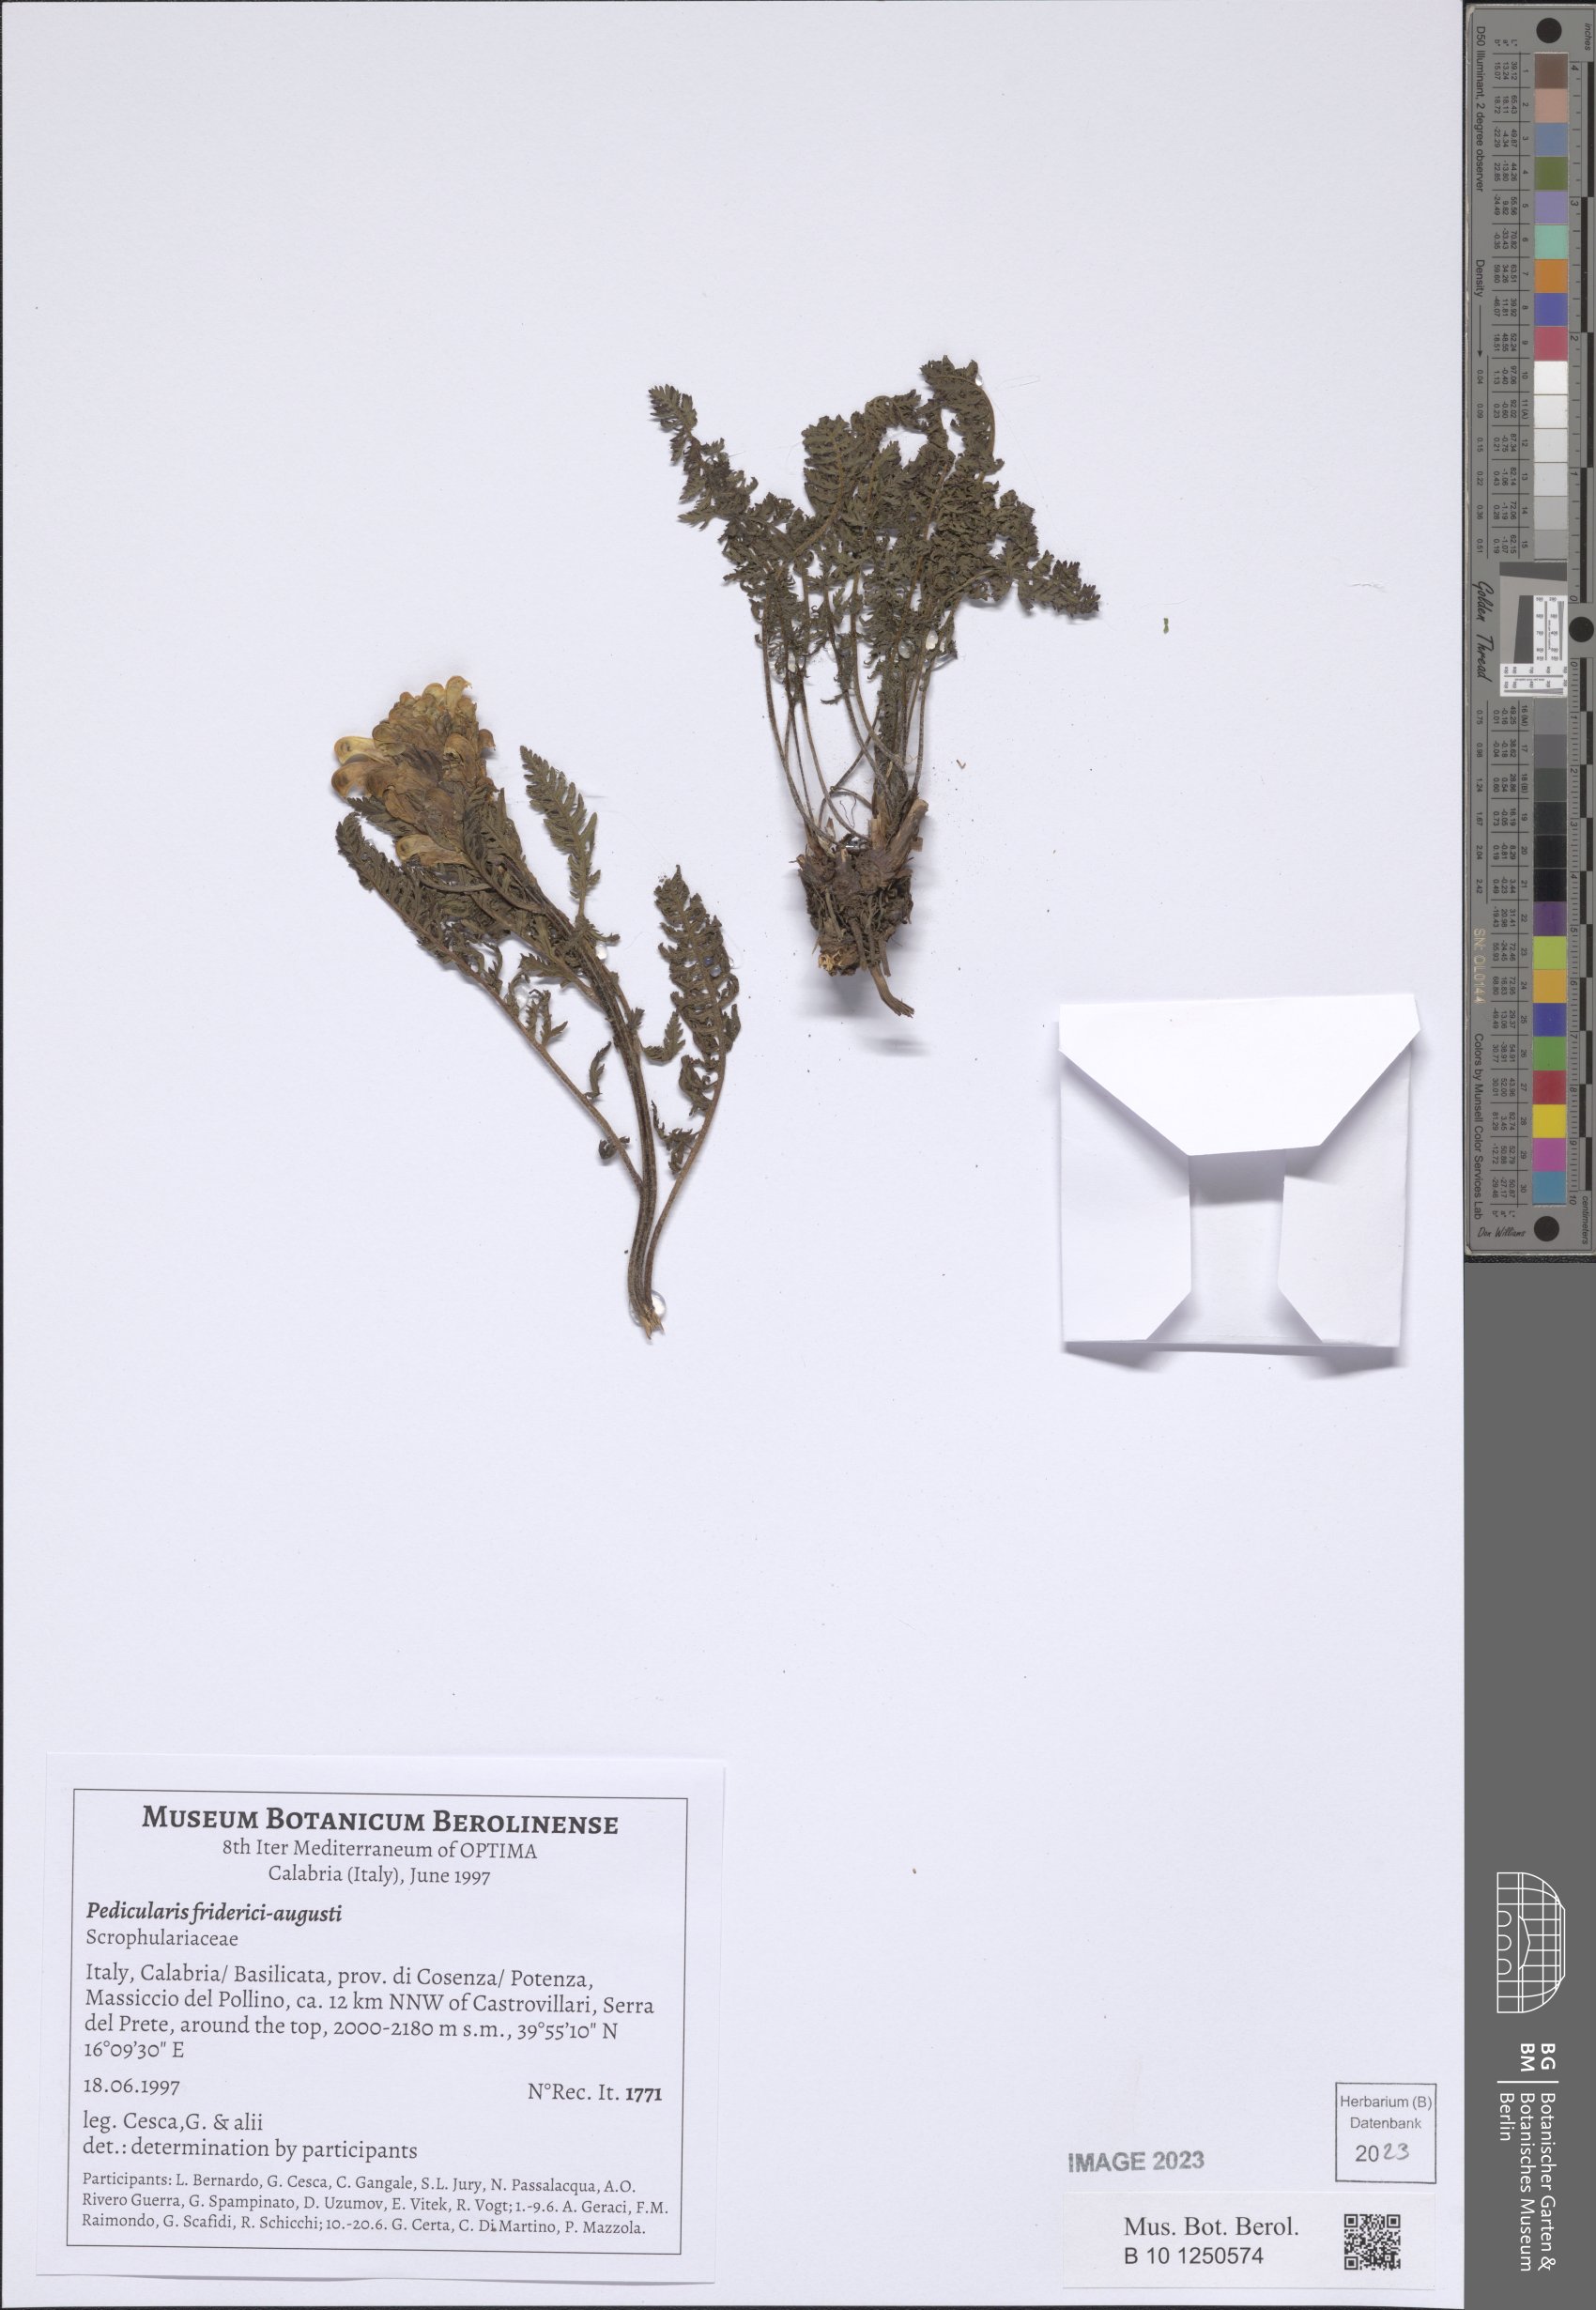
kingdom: Plantae
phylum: Tracheophyta
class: Magnoliopsida
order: Lamiales
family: Orobanchaceae
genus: Pedicularis
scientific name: Pedicularis friderici-augusti
